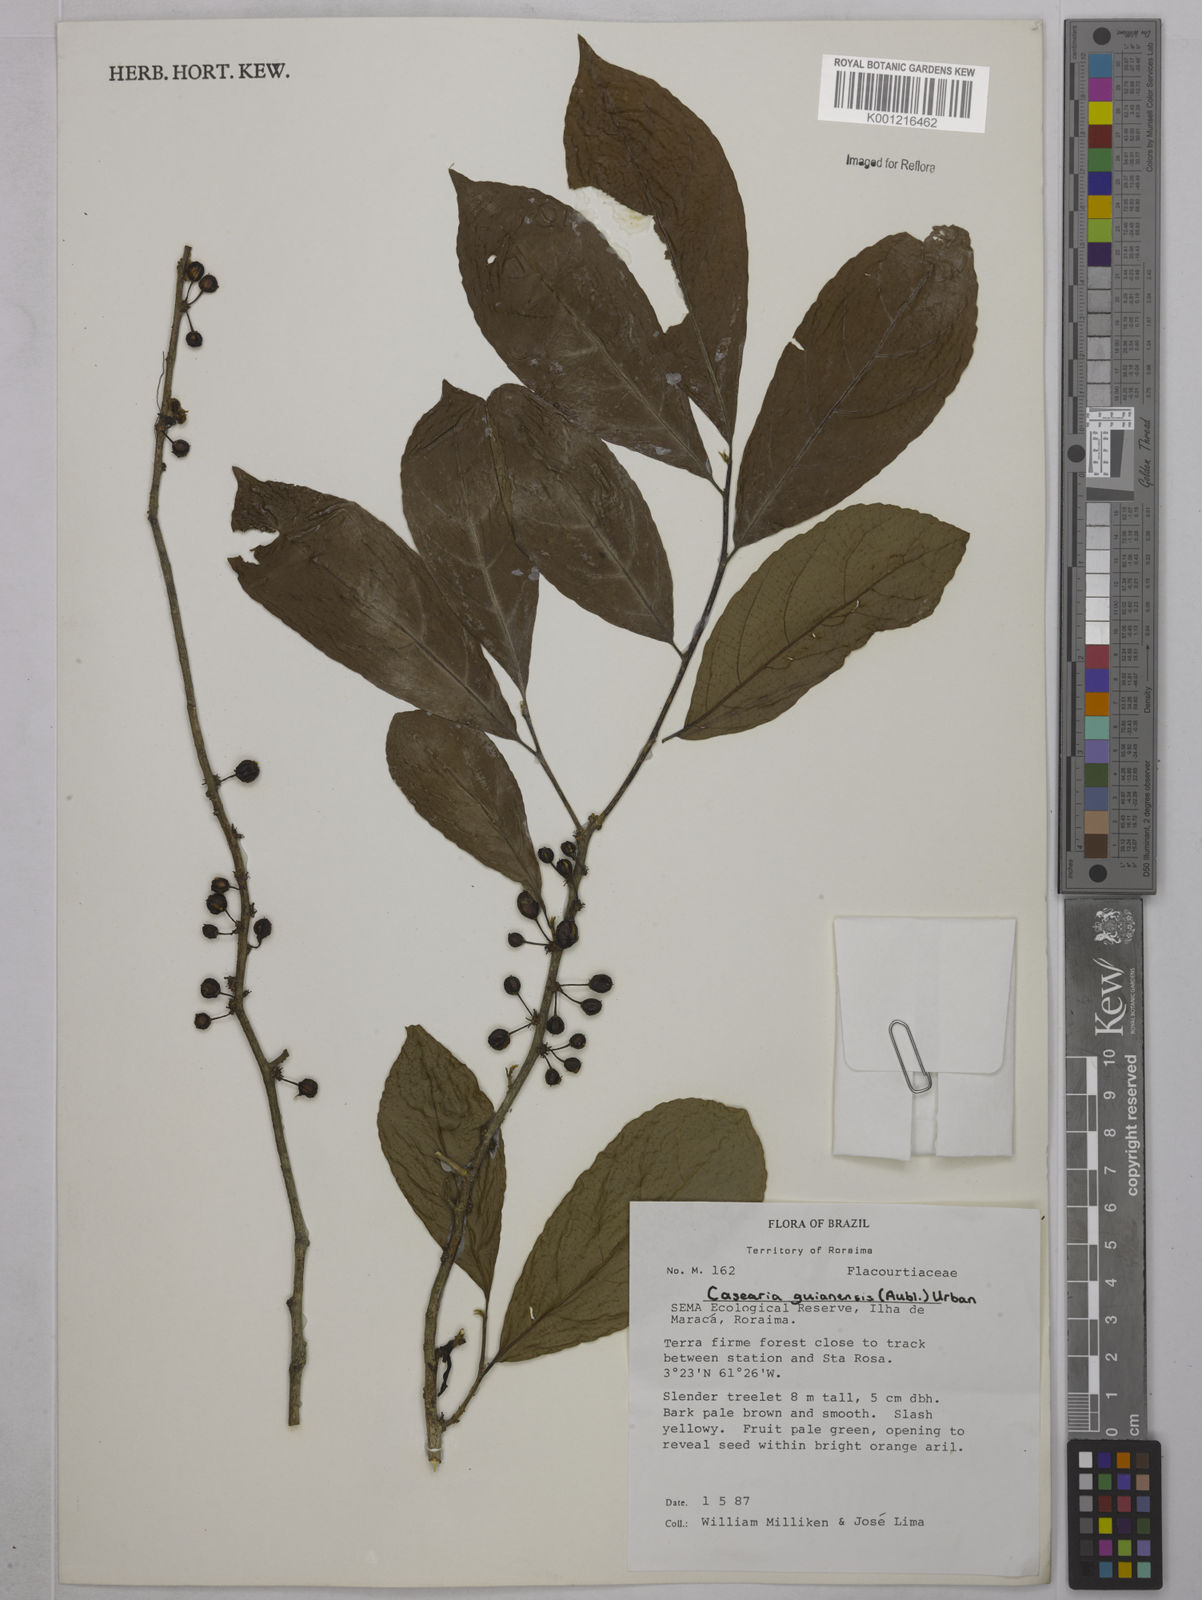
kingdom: Plantae
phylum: Tracheophyta
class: Magnoliopsida
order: Malpighiales
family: Salicaceae
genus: Casearia
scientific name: Casearia guianensis
